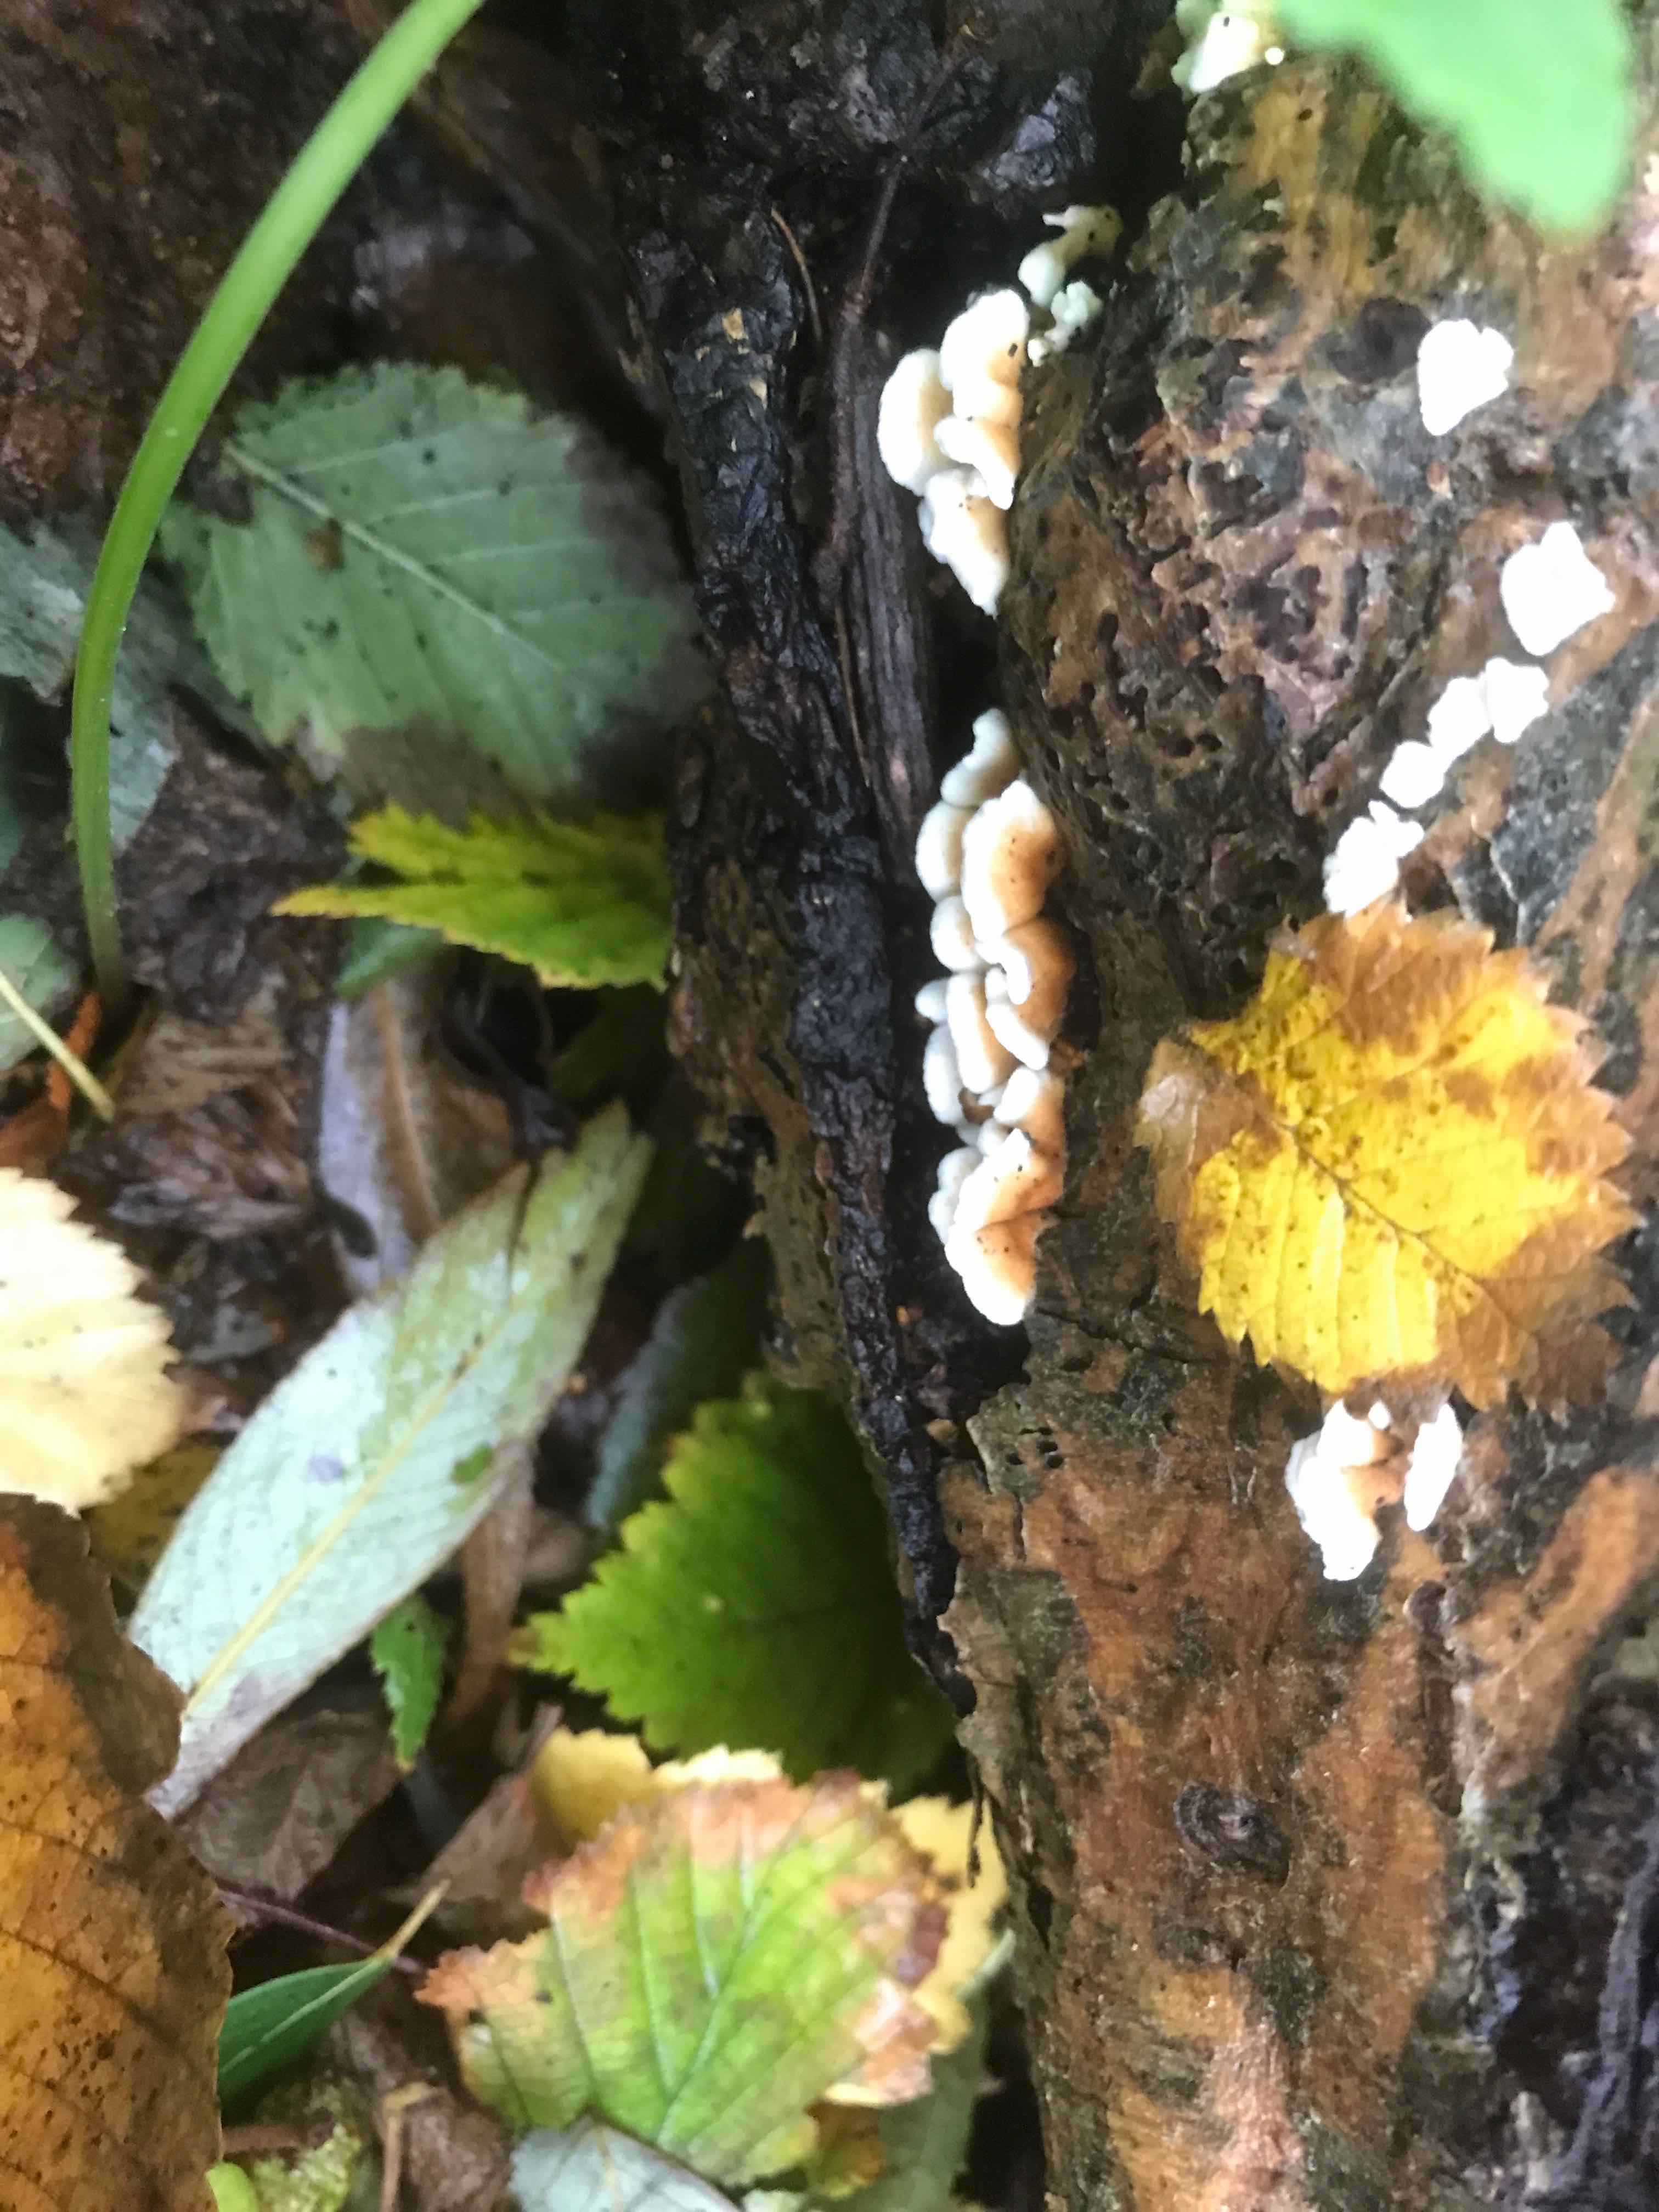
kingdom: Fungi
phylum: Basidiomycota
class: Agaricomycetes
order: Amylocorticiales
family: Amylocorticiaceae
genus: Plicaturopsis
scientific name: Plicaturopsis crispa
